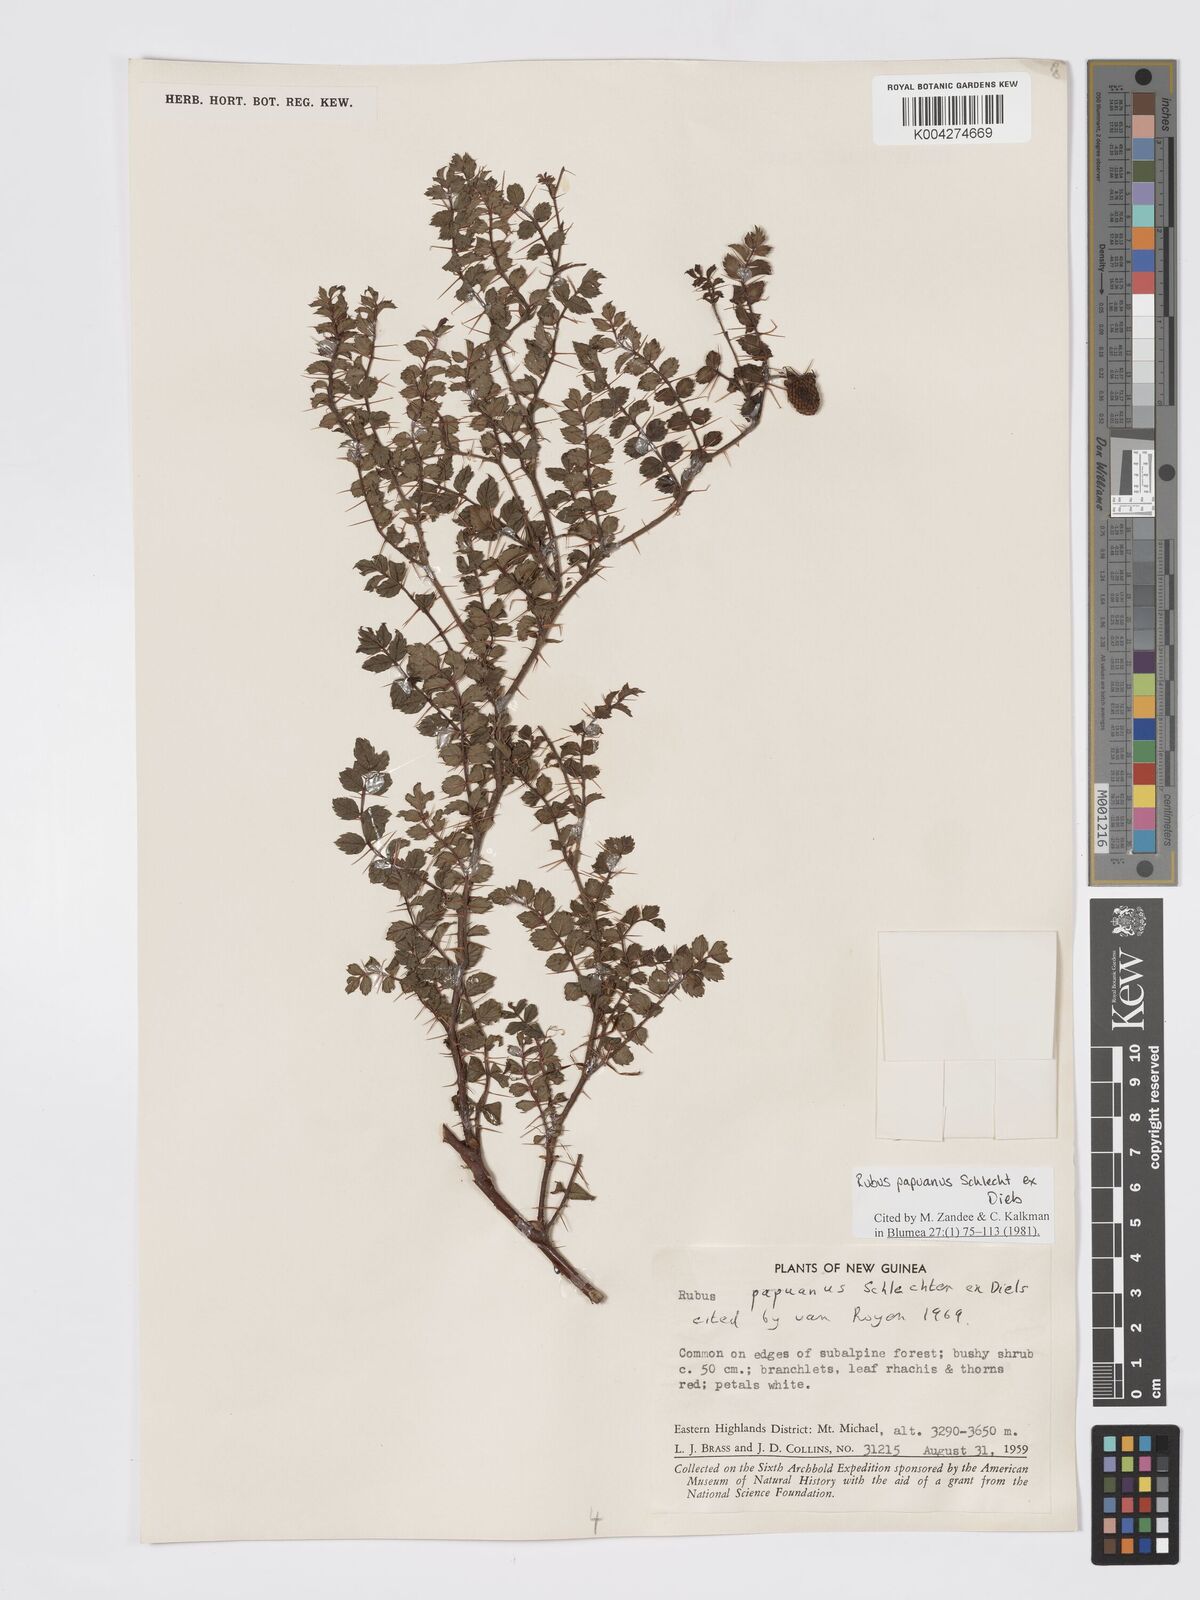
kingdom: Plantae
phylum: Tracheophyta
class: Magnoliopsida
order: Rosales
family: Rosaceae
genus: Rubus
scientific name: Rubus papuanus
